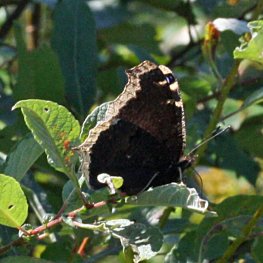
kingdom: Animalia
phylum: Arthropoda
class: Insecta
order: Lepidoptera
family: Nymphalidae
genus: Nymphalis
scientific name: Nymphalis antiopa
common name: Mourning Cloak
